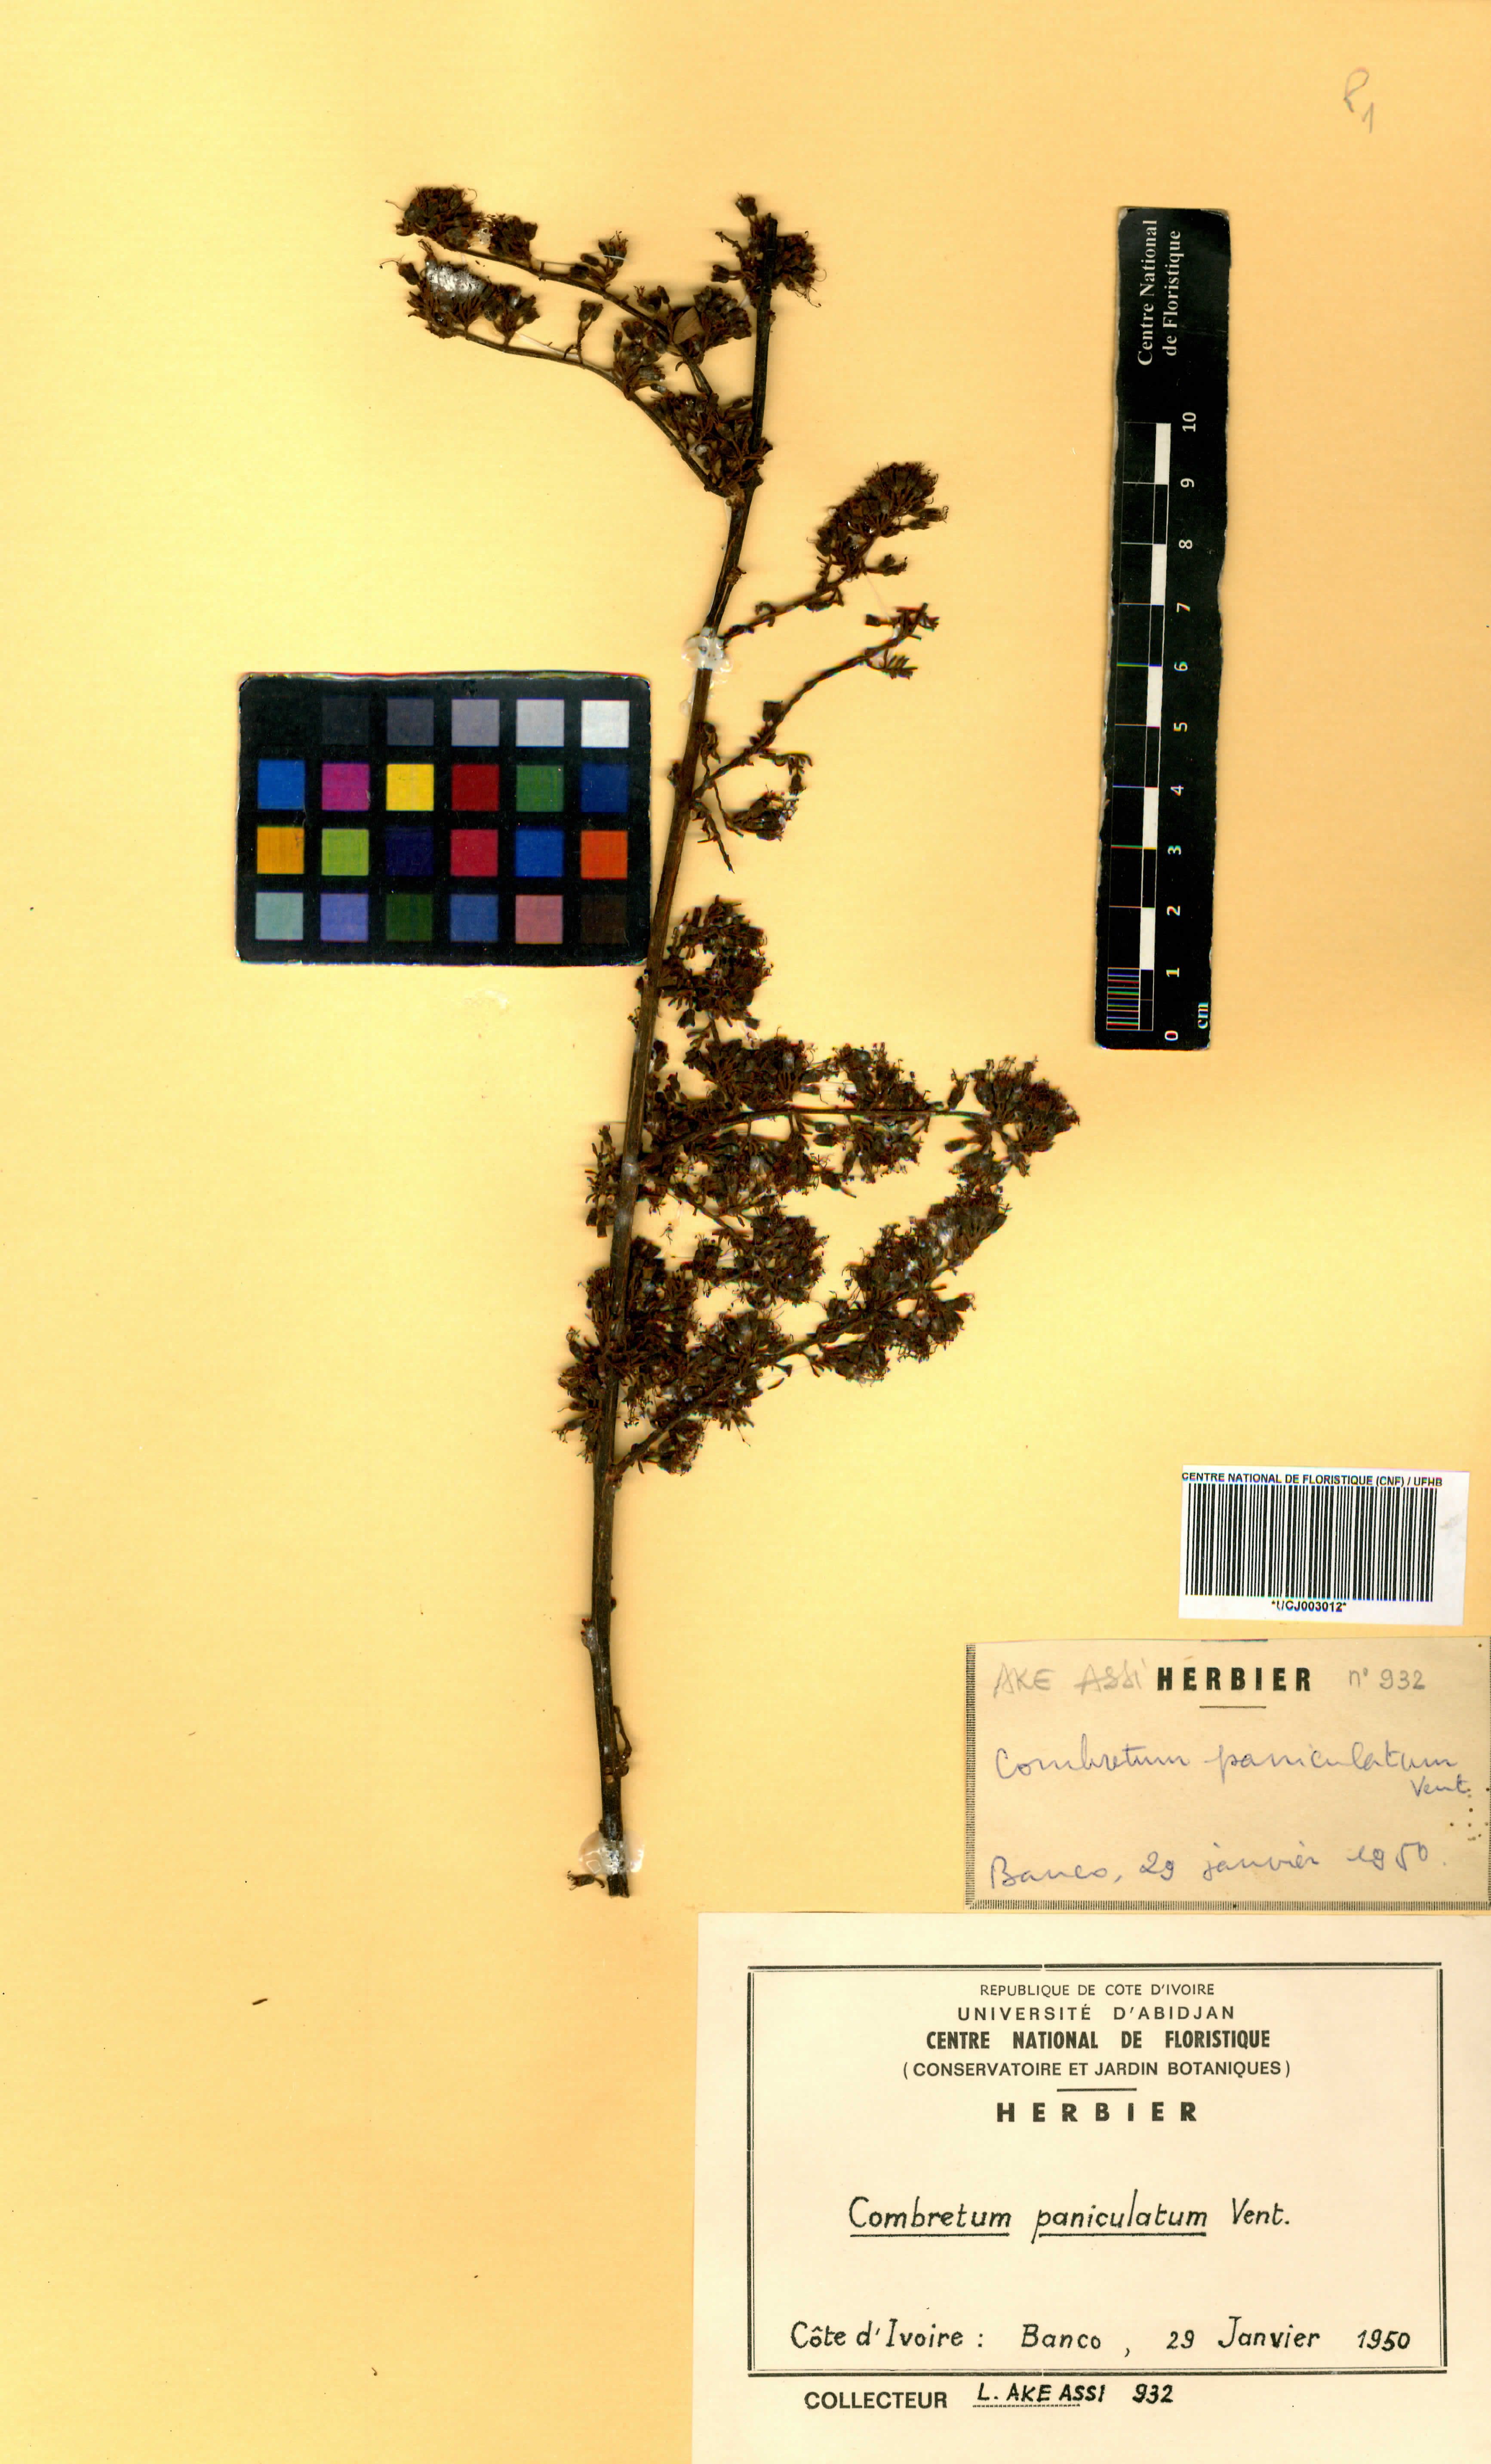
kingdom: Plantae
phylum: Tracheophyta
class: Magnoliopsida
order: Myrtales
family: Combretaceae
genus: Combretum
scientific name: Combretum paniculatum
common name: Fire vine
